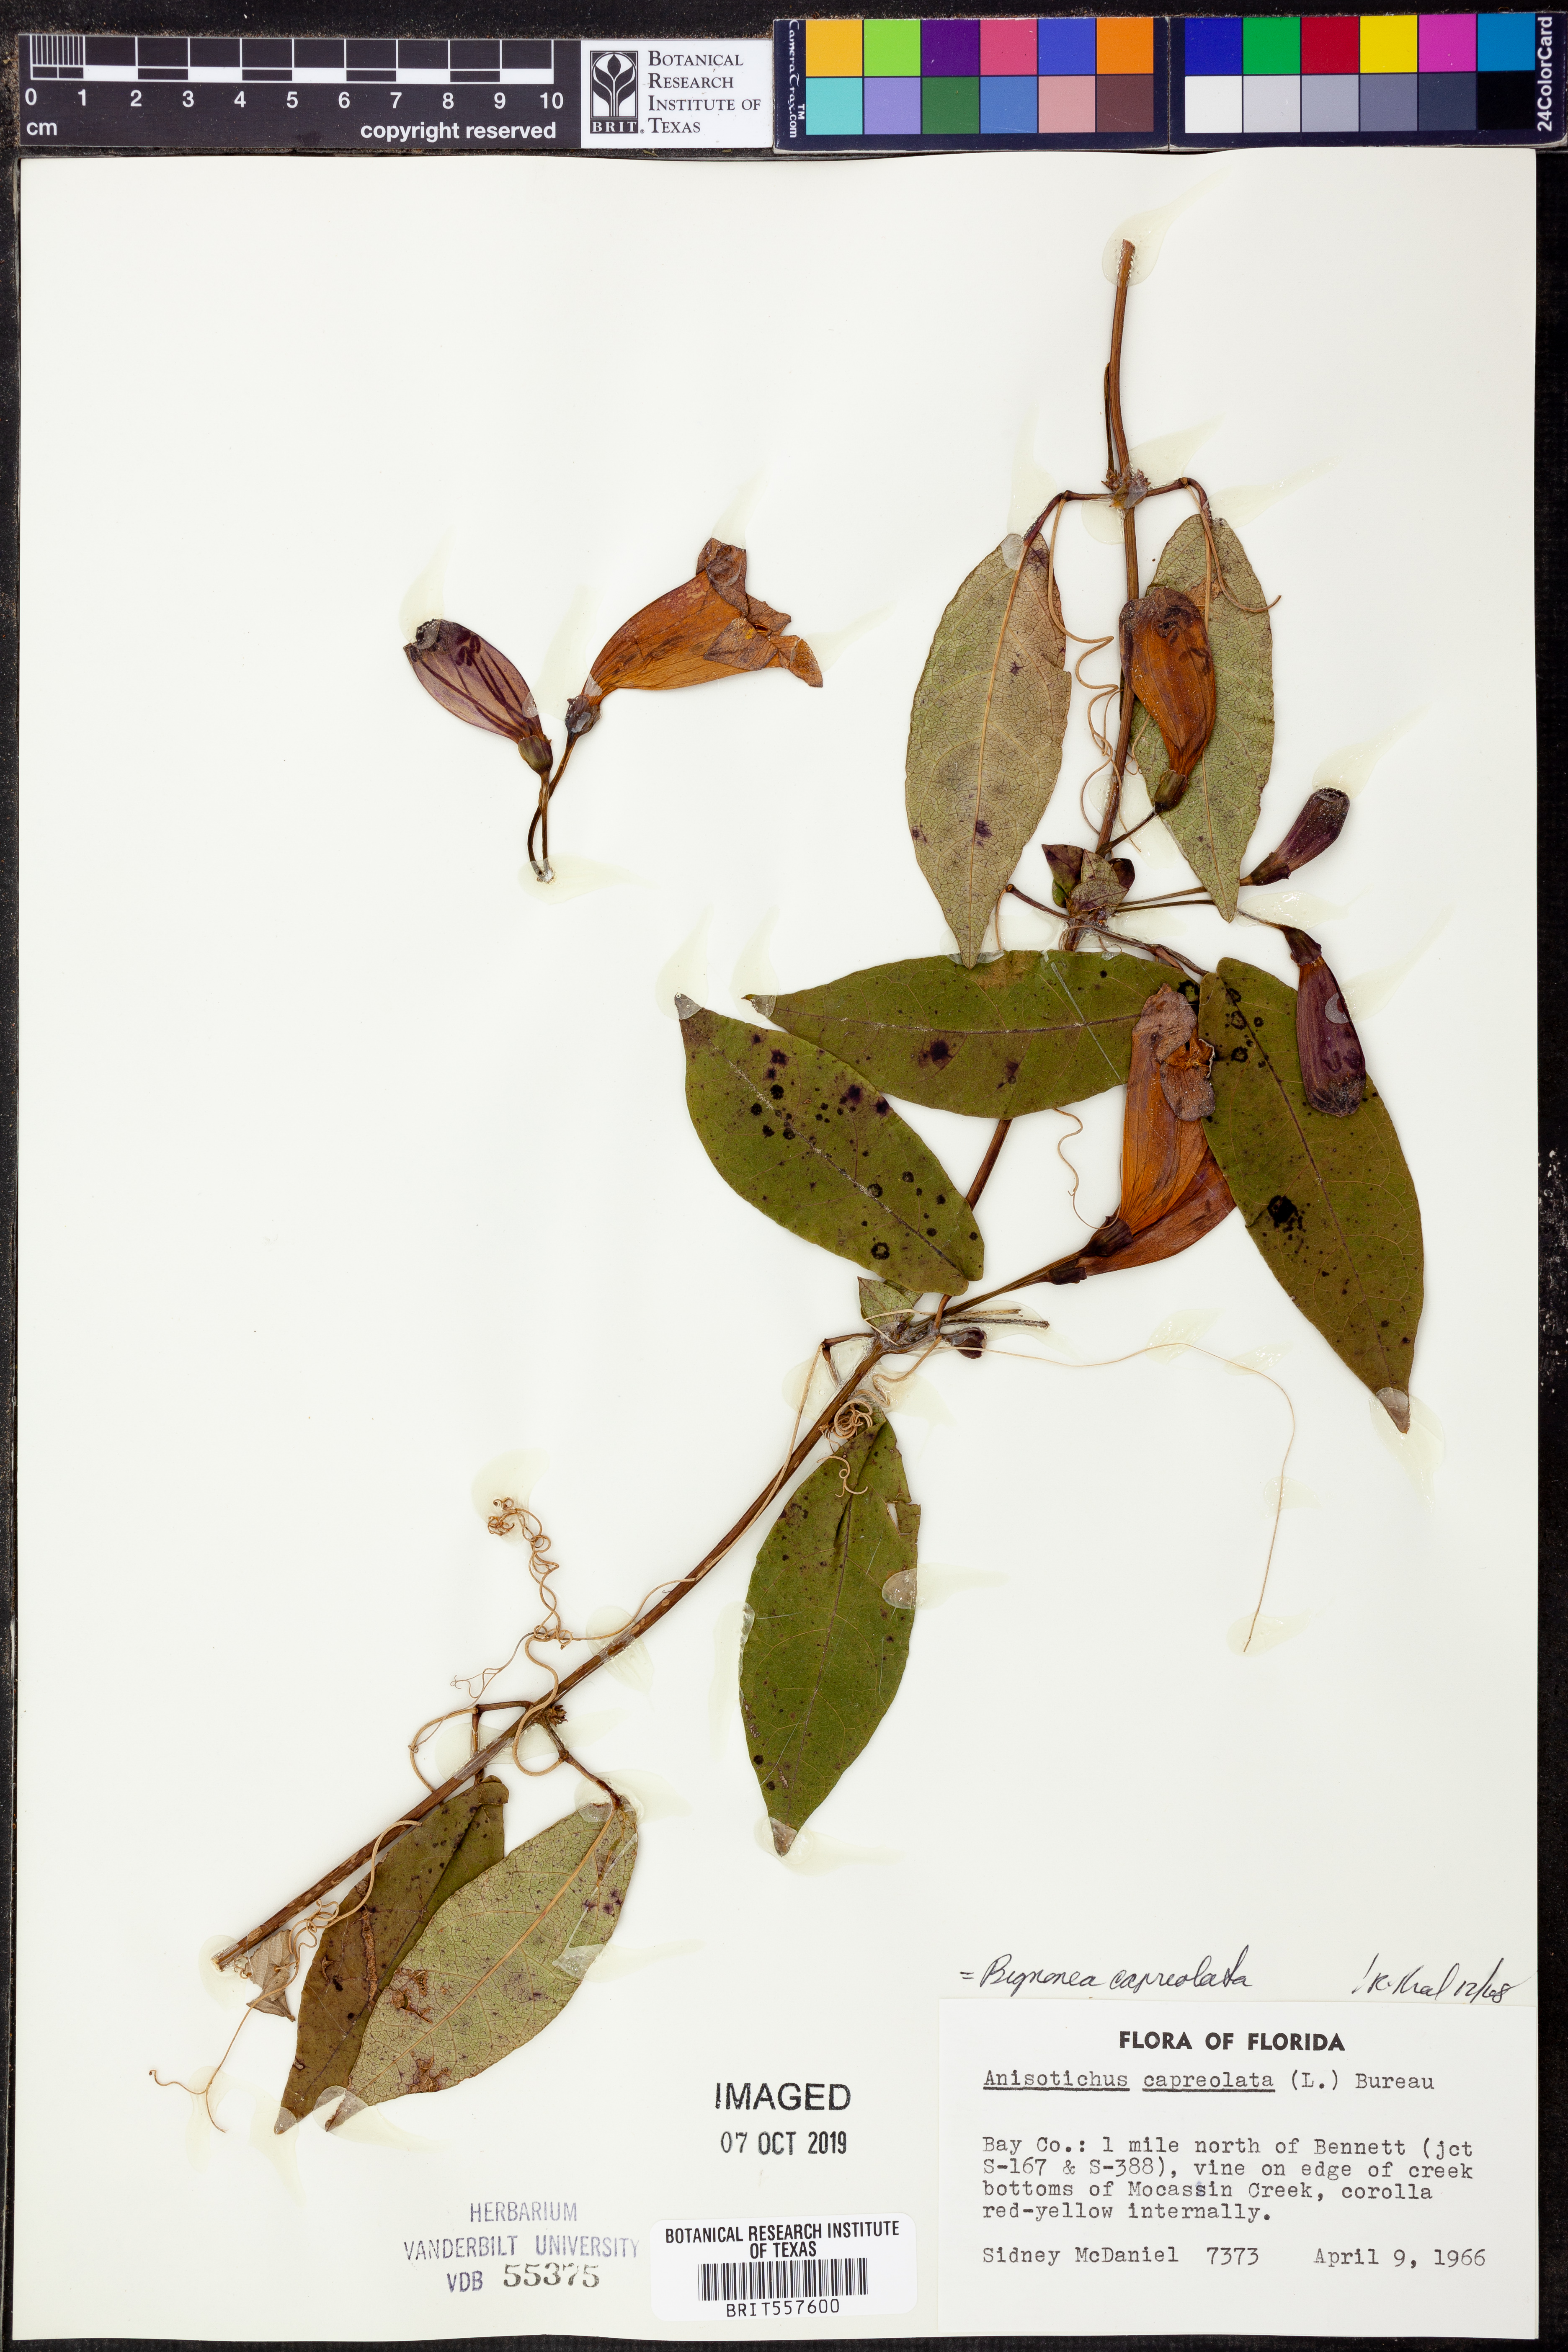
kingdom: Plantae
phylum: Tracheophyta
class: Magnoliopsida
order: Lamiales
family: Bignoniaceae
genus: Bignonia
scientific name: Bignonia capreolata
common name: Crossvine
